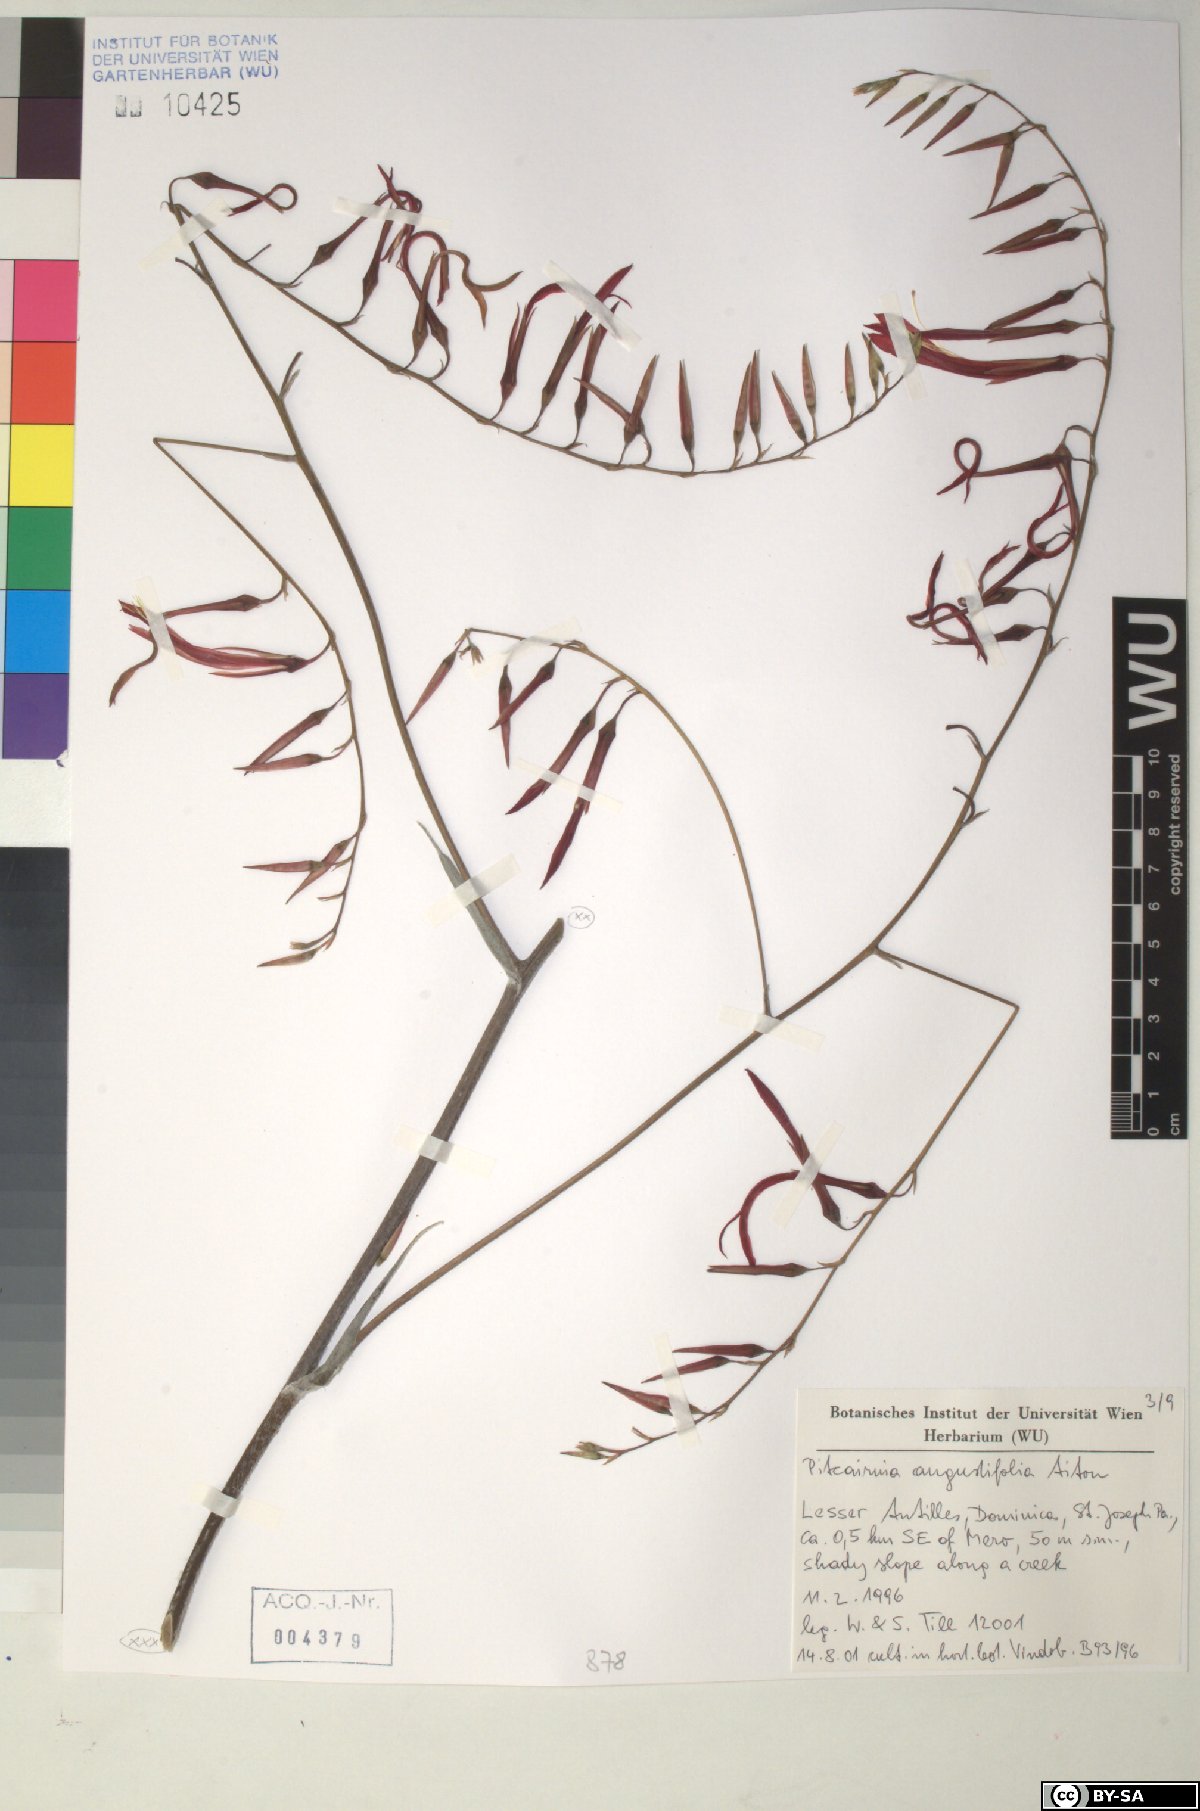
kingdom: Plantae
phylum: Tracheophyta
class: Liliopsida
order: Poales
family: Bromeliaceae
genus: Pitcairnia
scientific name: Pitcairnia angustifolia
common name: Clapper
